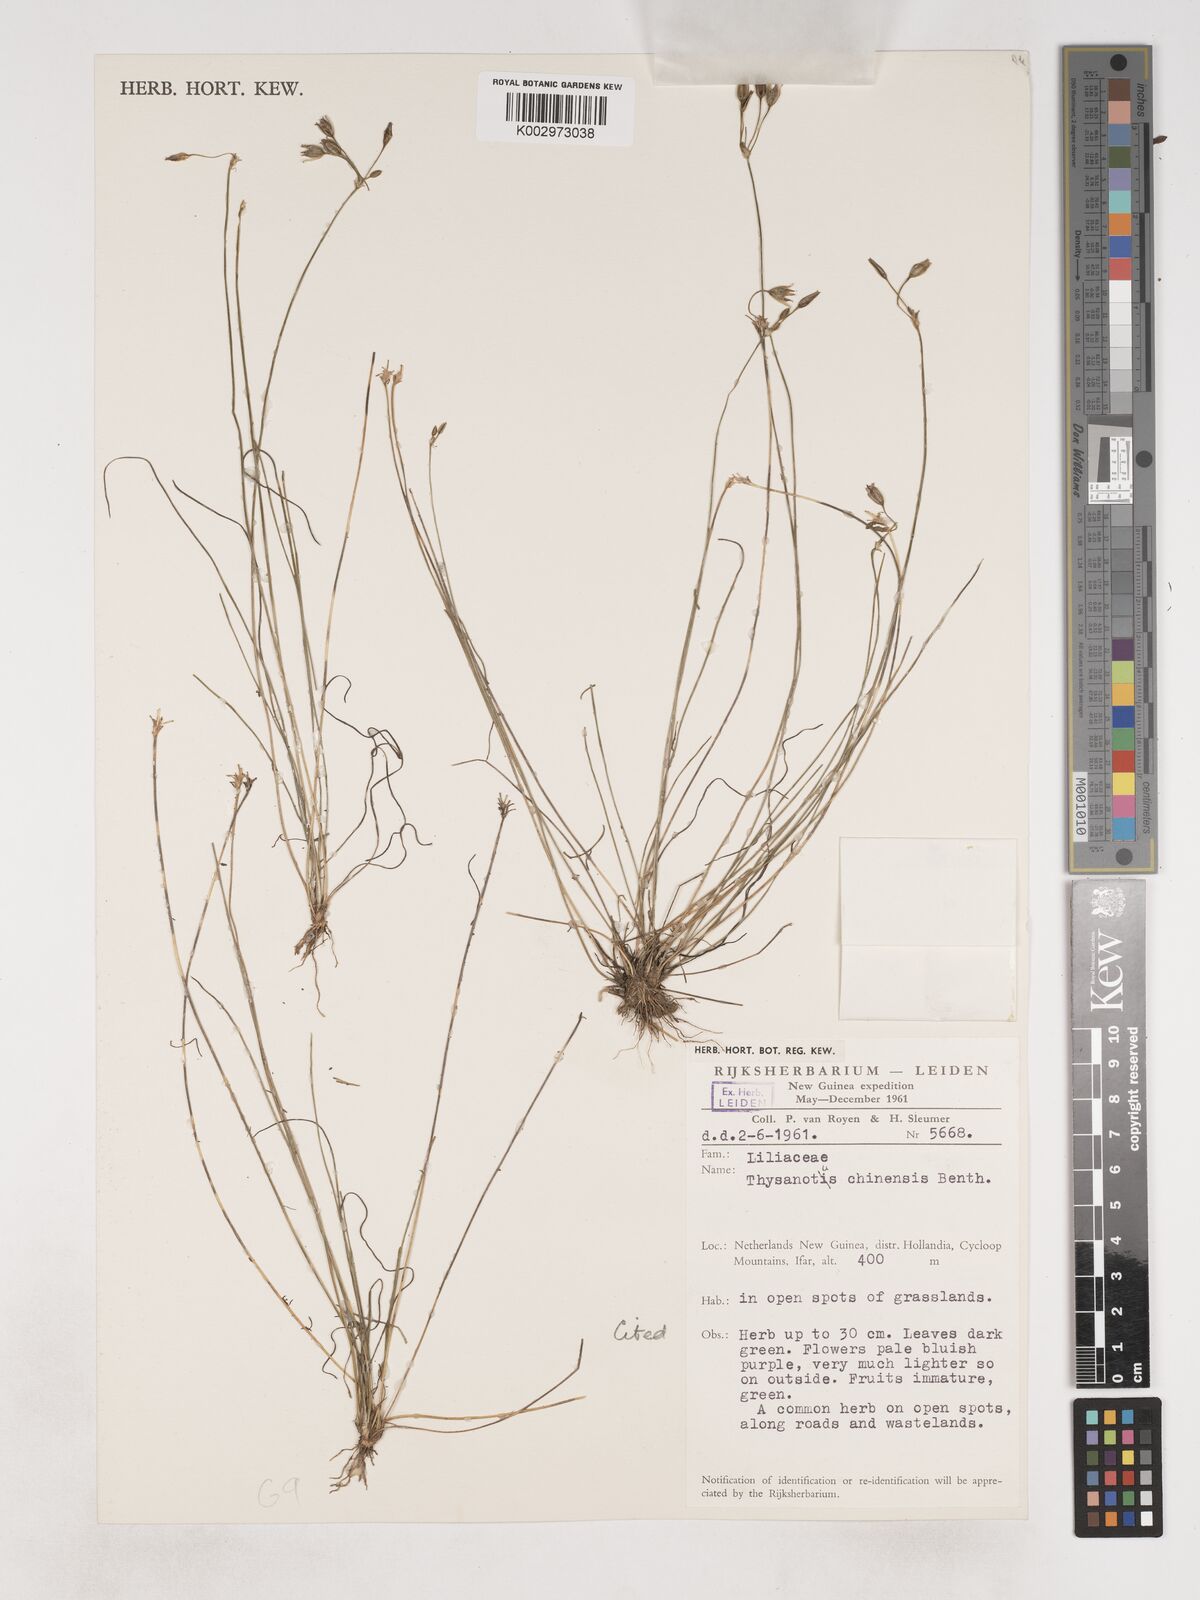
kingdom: Plantae
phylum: Tracheophyta
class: Liliopsida
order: Asparagales
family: Asparagaceae
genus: Thysanotus
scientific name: Thysanotus chinensis
